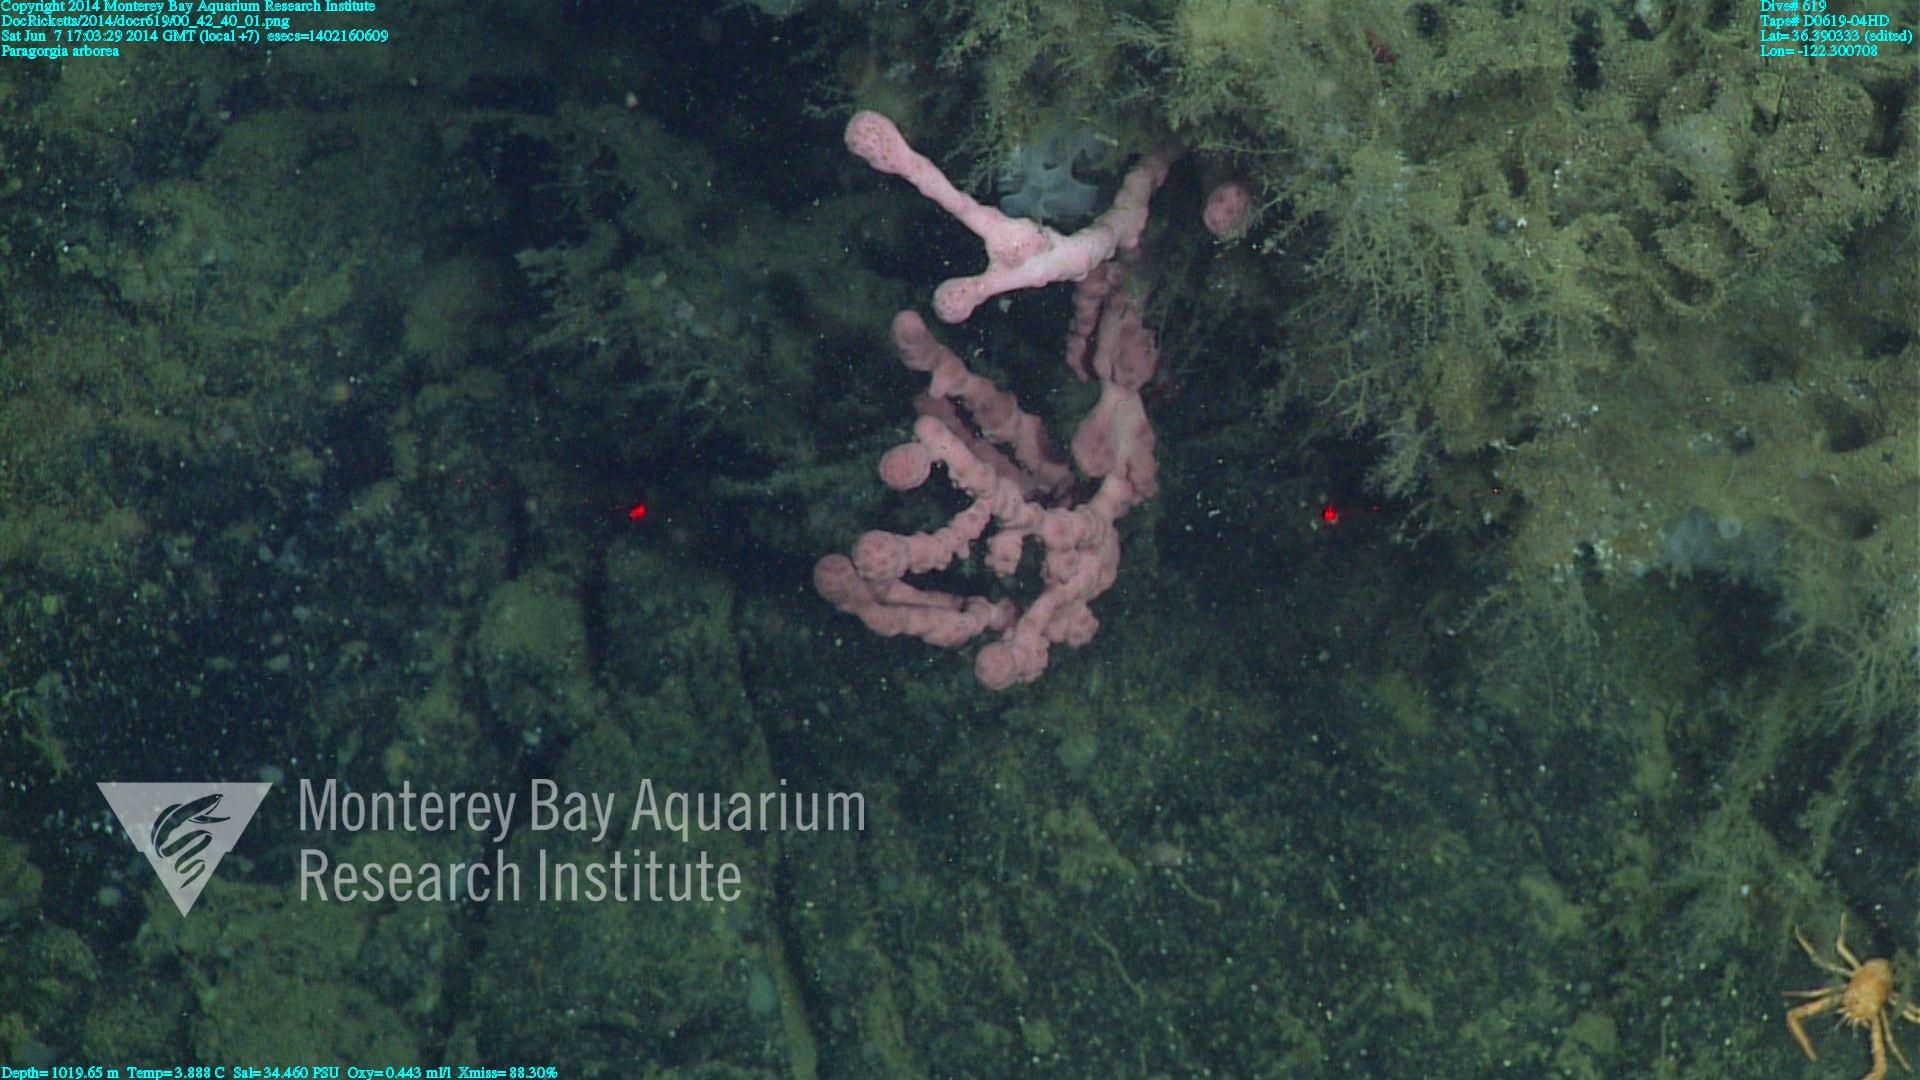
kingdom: Animalia
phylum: Cnidaria
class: Anthozoa
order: Scleralcyonacea
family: Coralliidae
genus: Paragorgia
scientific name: Paragorgia arborea
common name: Bubble gum coral
